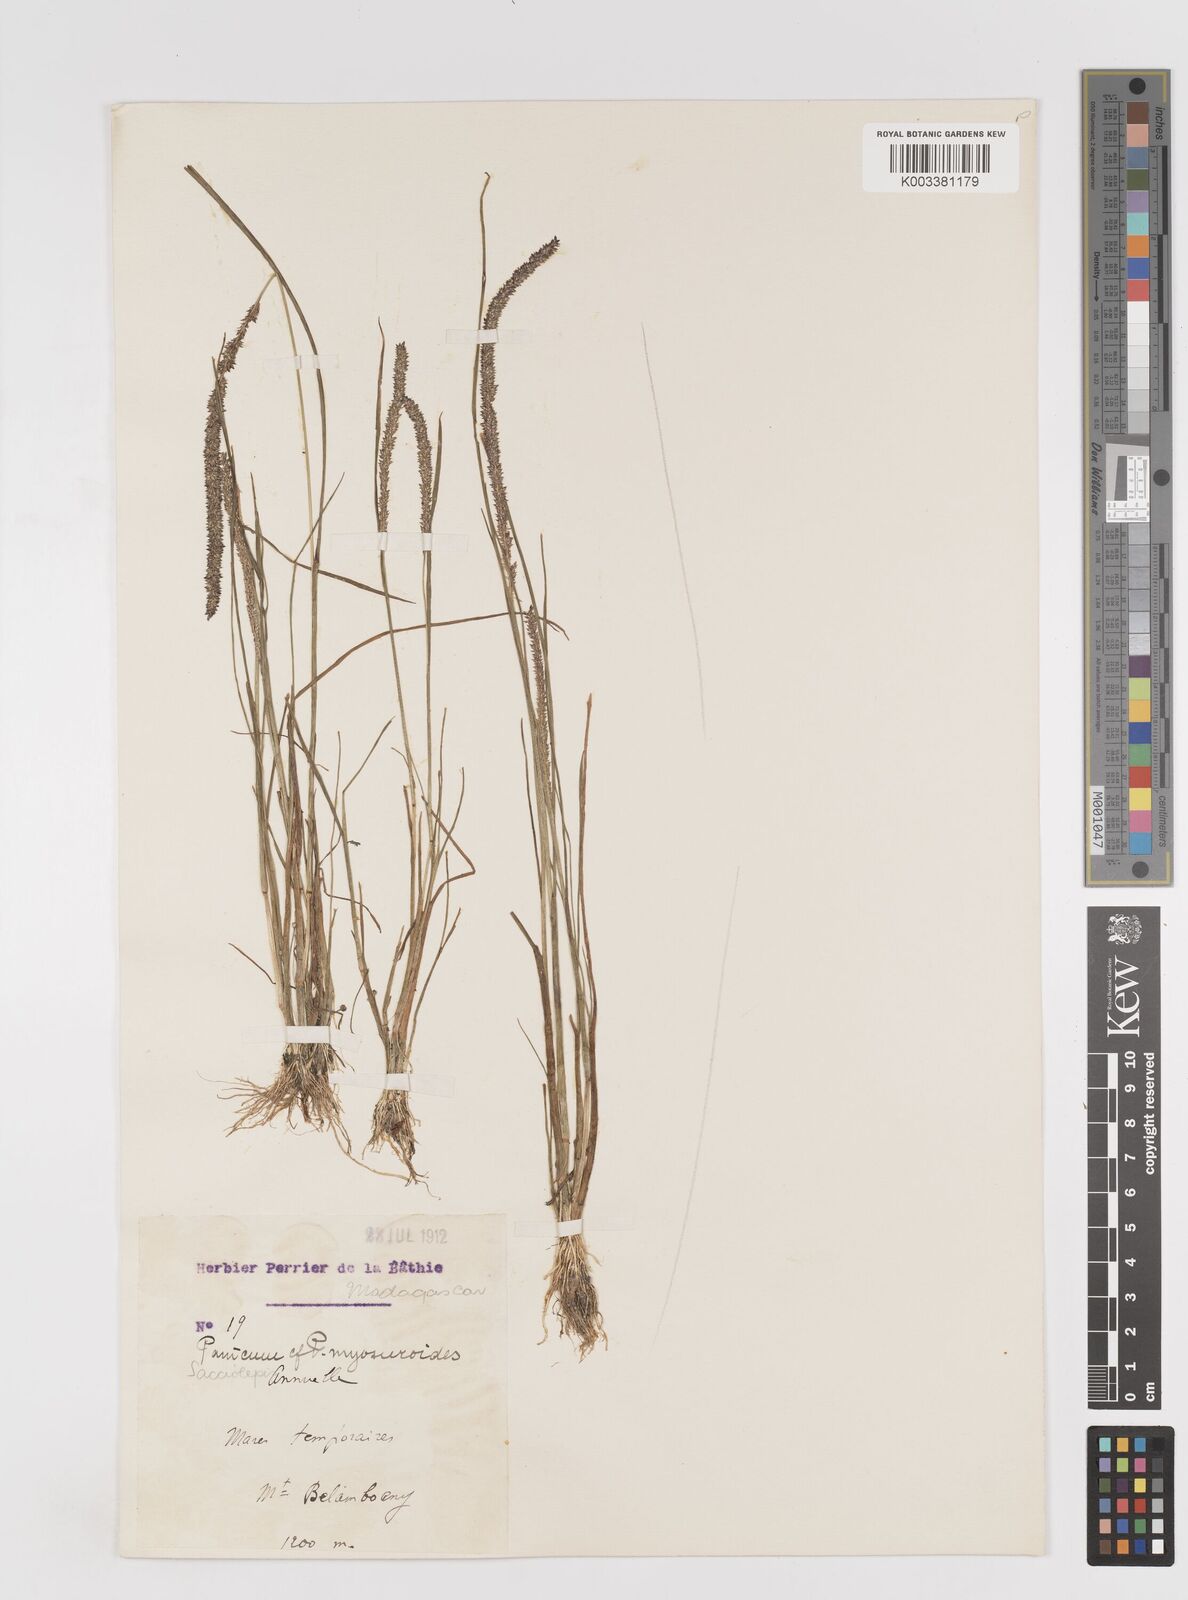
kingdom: Plantae
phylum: Tracheophyta
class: Liliopsida
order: Poales
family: Poaceae
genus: Sacciolepis
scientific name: Sacciolepis myosuroides
